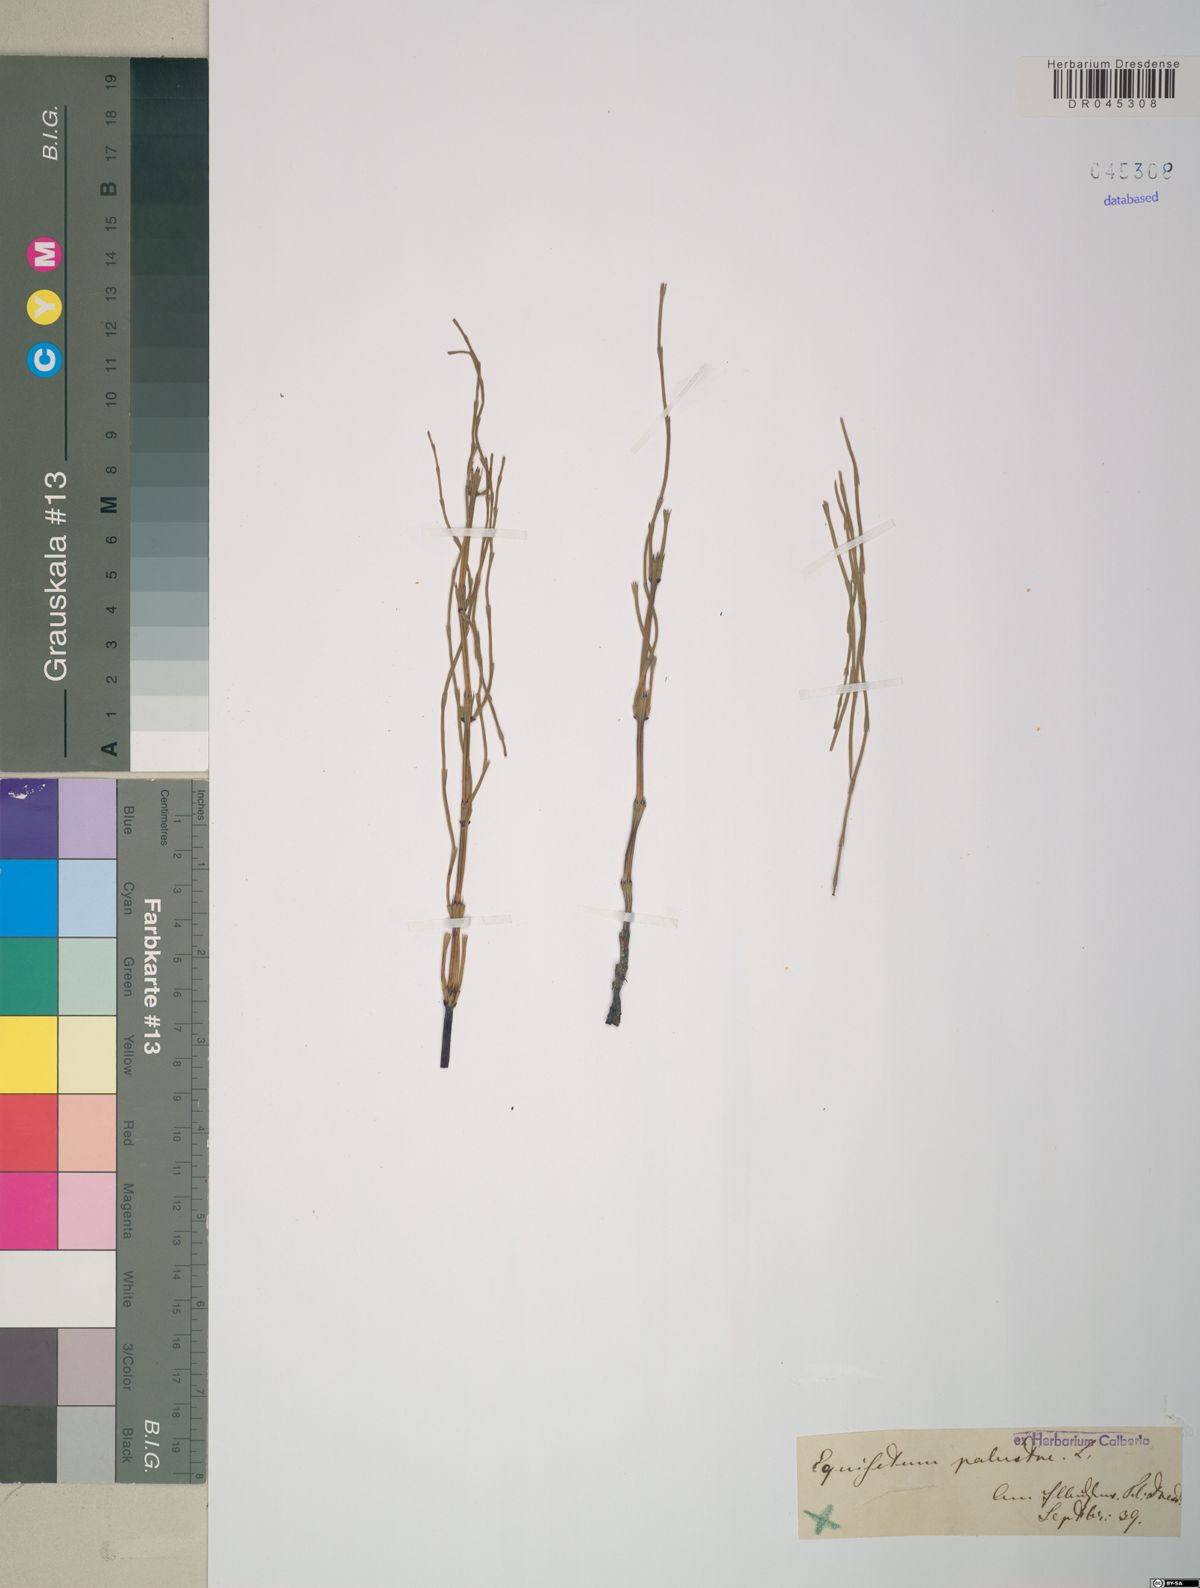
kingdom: Plantae
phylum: Tracheophyta
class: Polypodiopsida
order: Equisetales
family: Equisetaceae
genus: Equisetum
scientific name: Equisetum palustre
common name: Marsh horsetail
